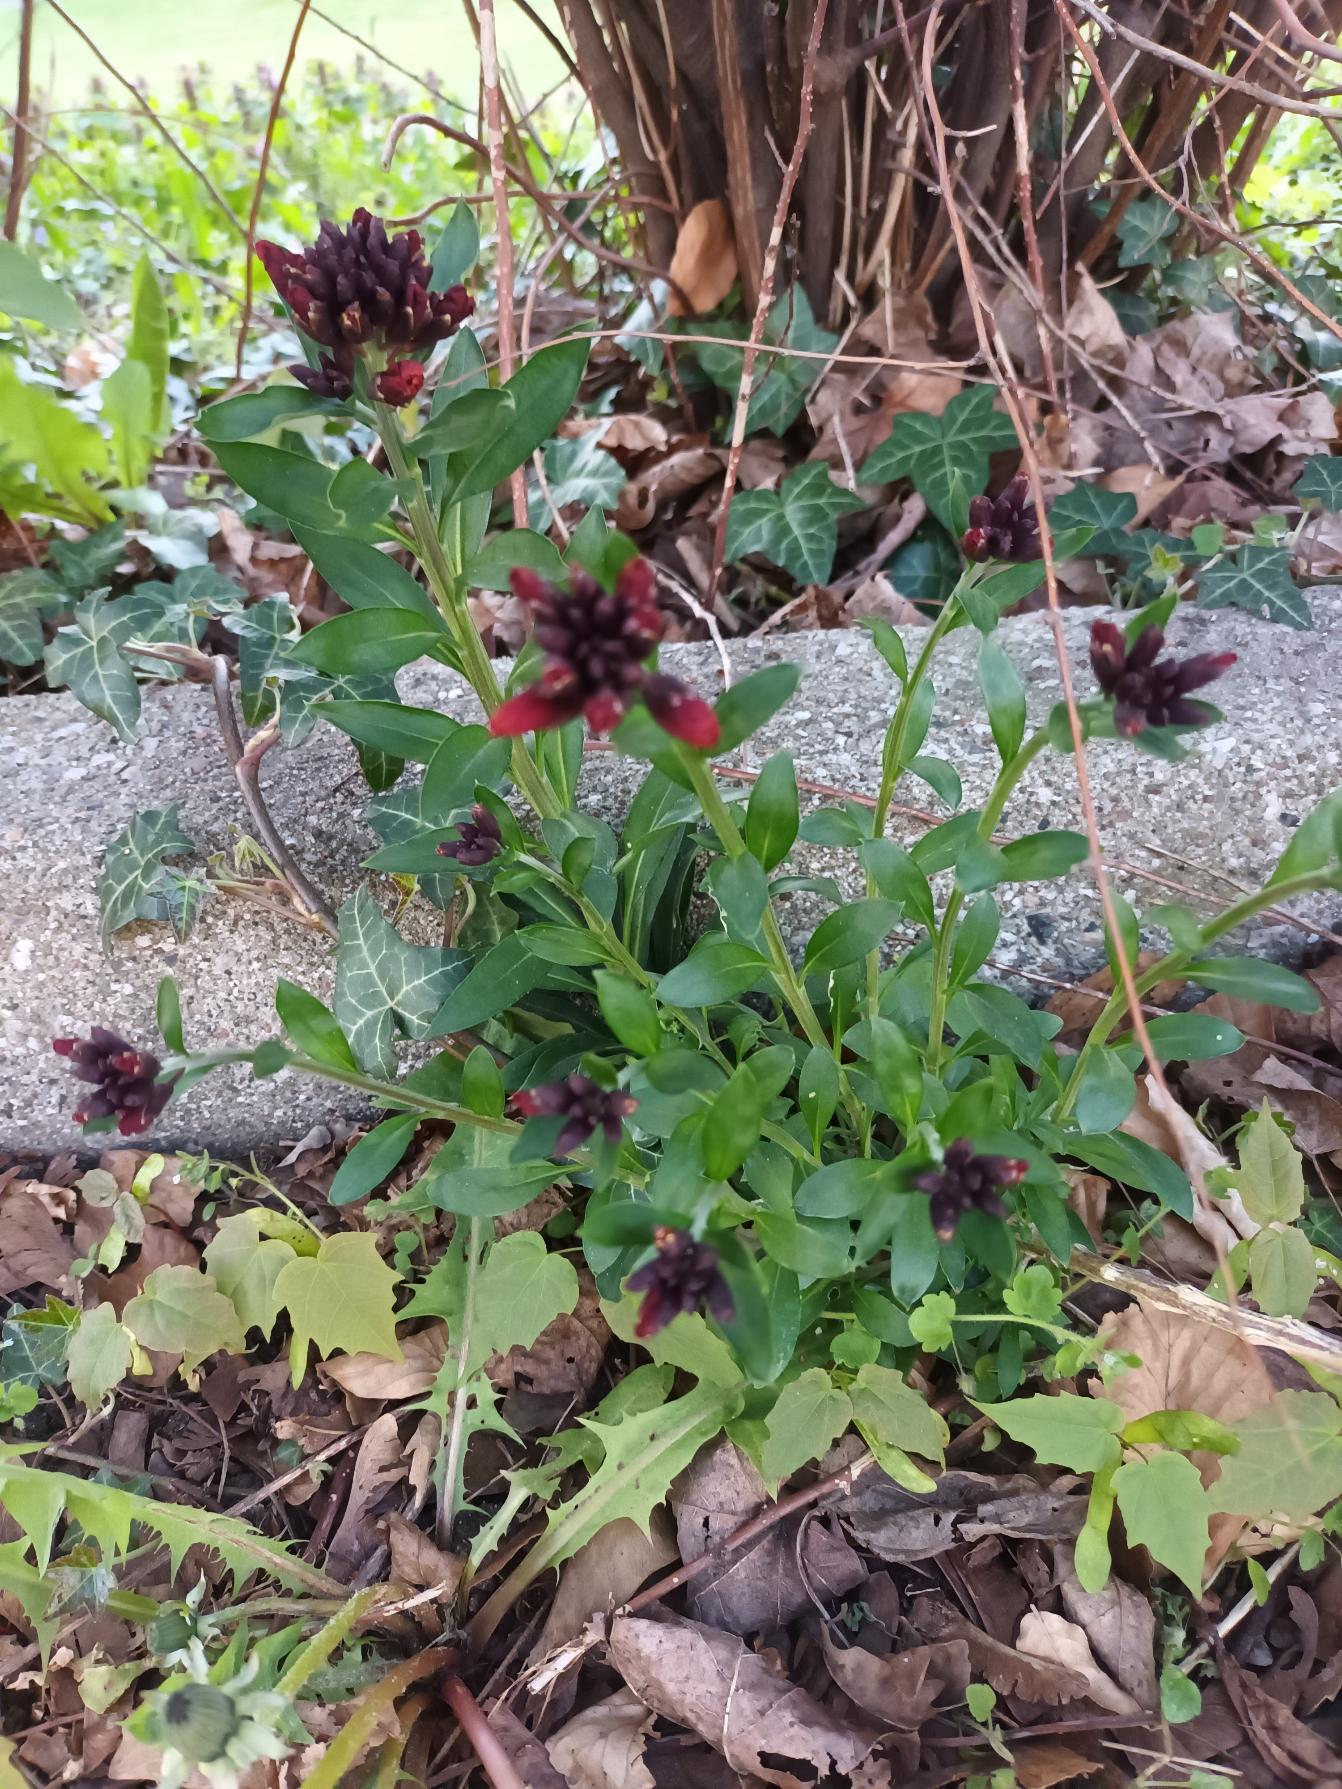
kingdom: Plantae
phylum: Tracheophyta
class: Magnoliopsida
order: Brassicales
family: Brassicaceae
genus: Erysimum
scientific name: Erysimum cheiri
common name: Gyldenlak
